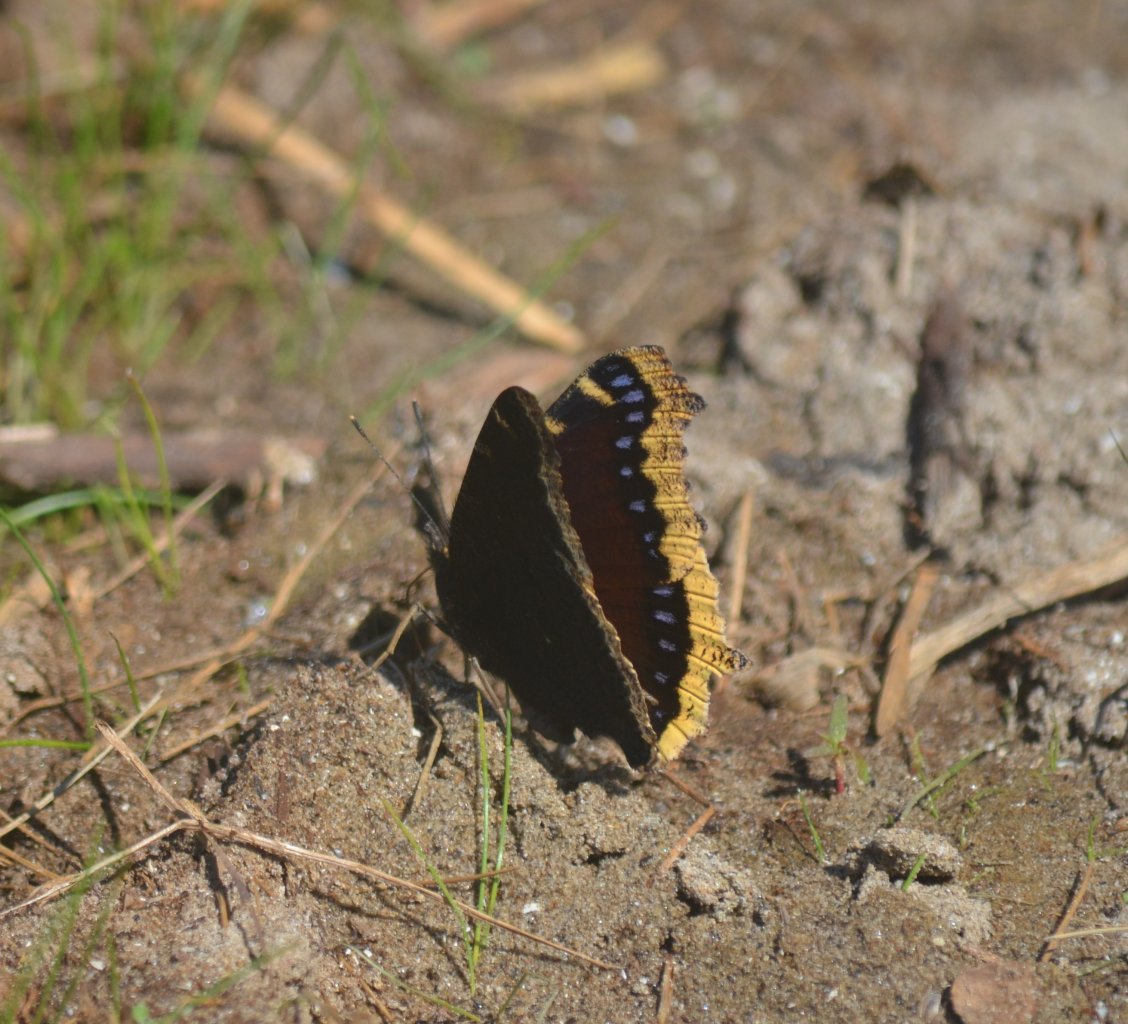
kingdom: Animalia
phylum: Arthropoda
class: Insecta
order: Lepidoptera
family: Nymphalidae
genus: Nymphalis
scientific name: Nymphalis antiopa
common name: Mourning Cloak
